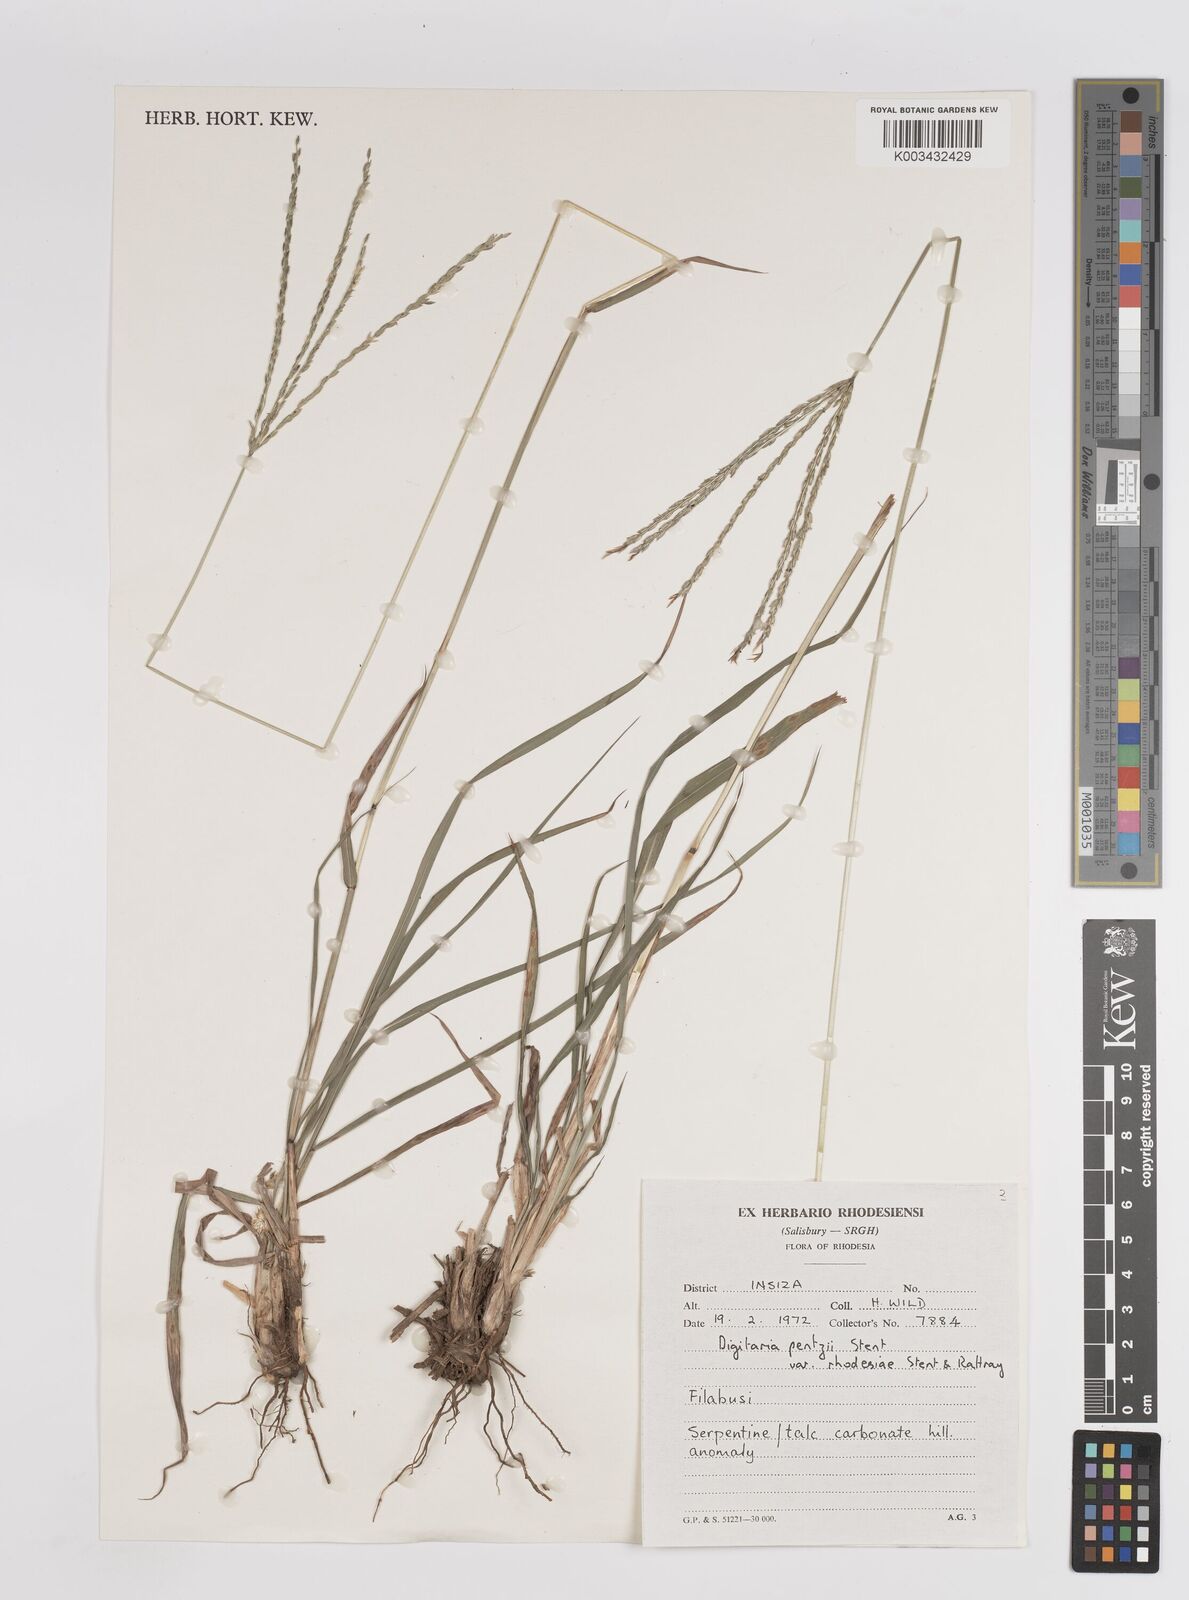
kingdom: Plantae
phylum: Tracheophyta
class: Liliopsida
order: Poales
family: Poaceae
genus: Digitaria
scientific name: Digitaria eriantha
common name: Digitgrass
